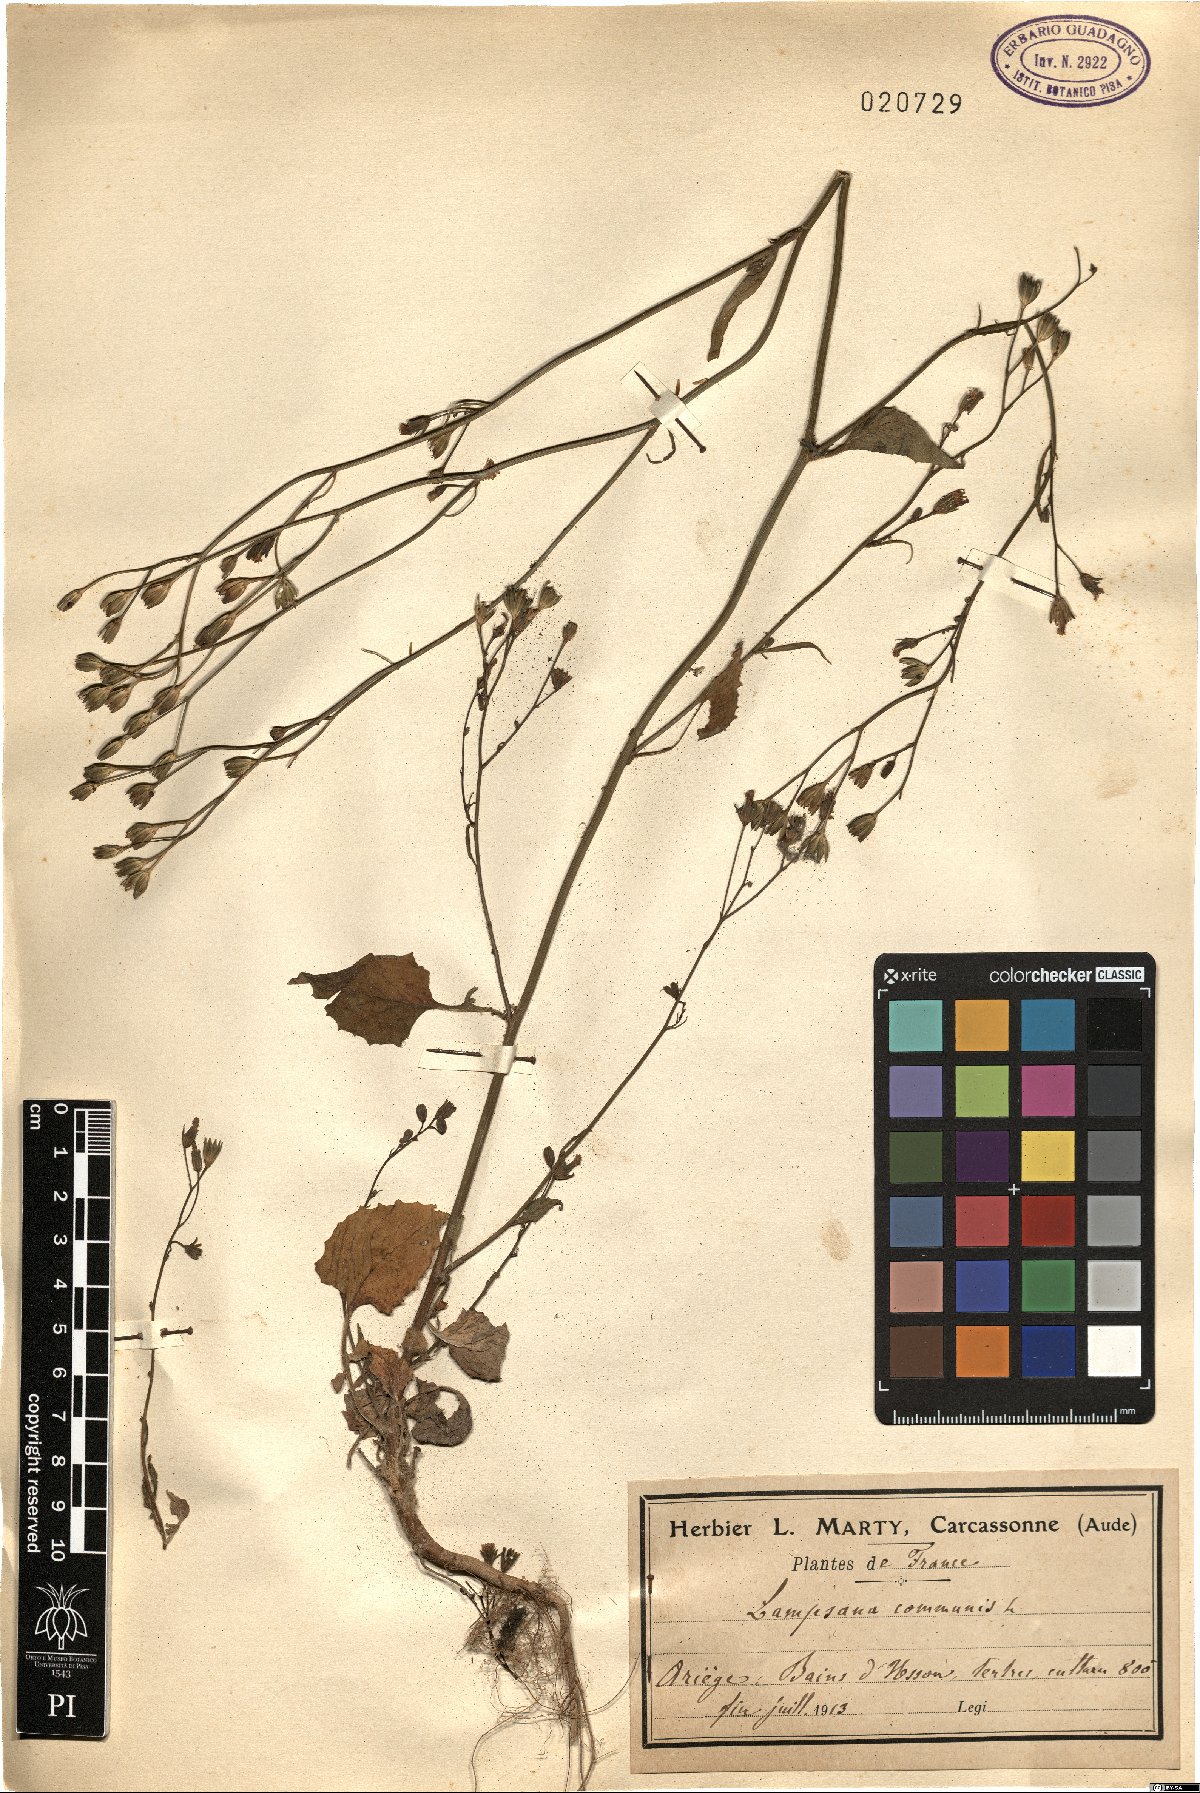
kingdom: Plantae
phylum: Tracheophyta
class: Magnoliopsida
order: Asterales
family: Asteraceae
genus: Lapsana
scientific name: Lapsana communis
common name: Nipplewort
